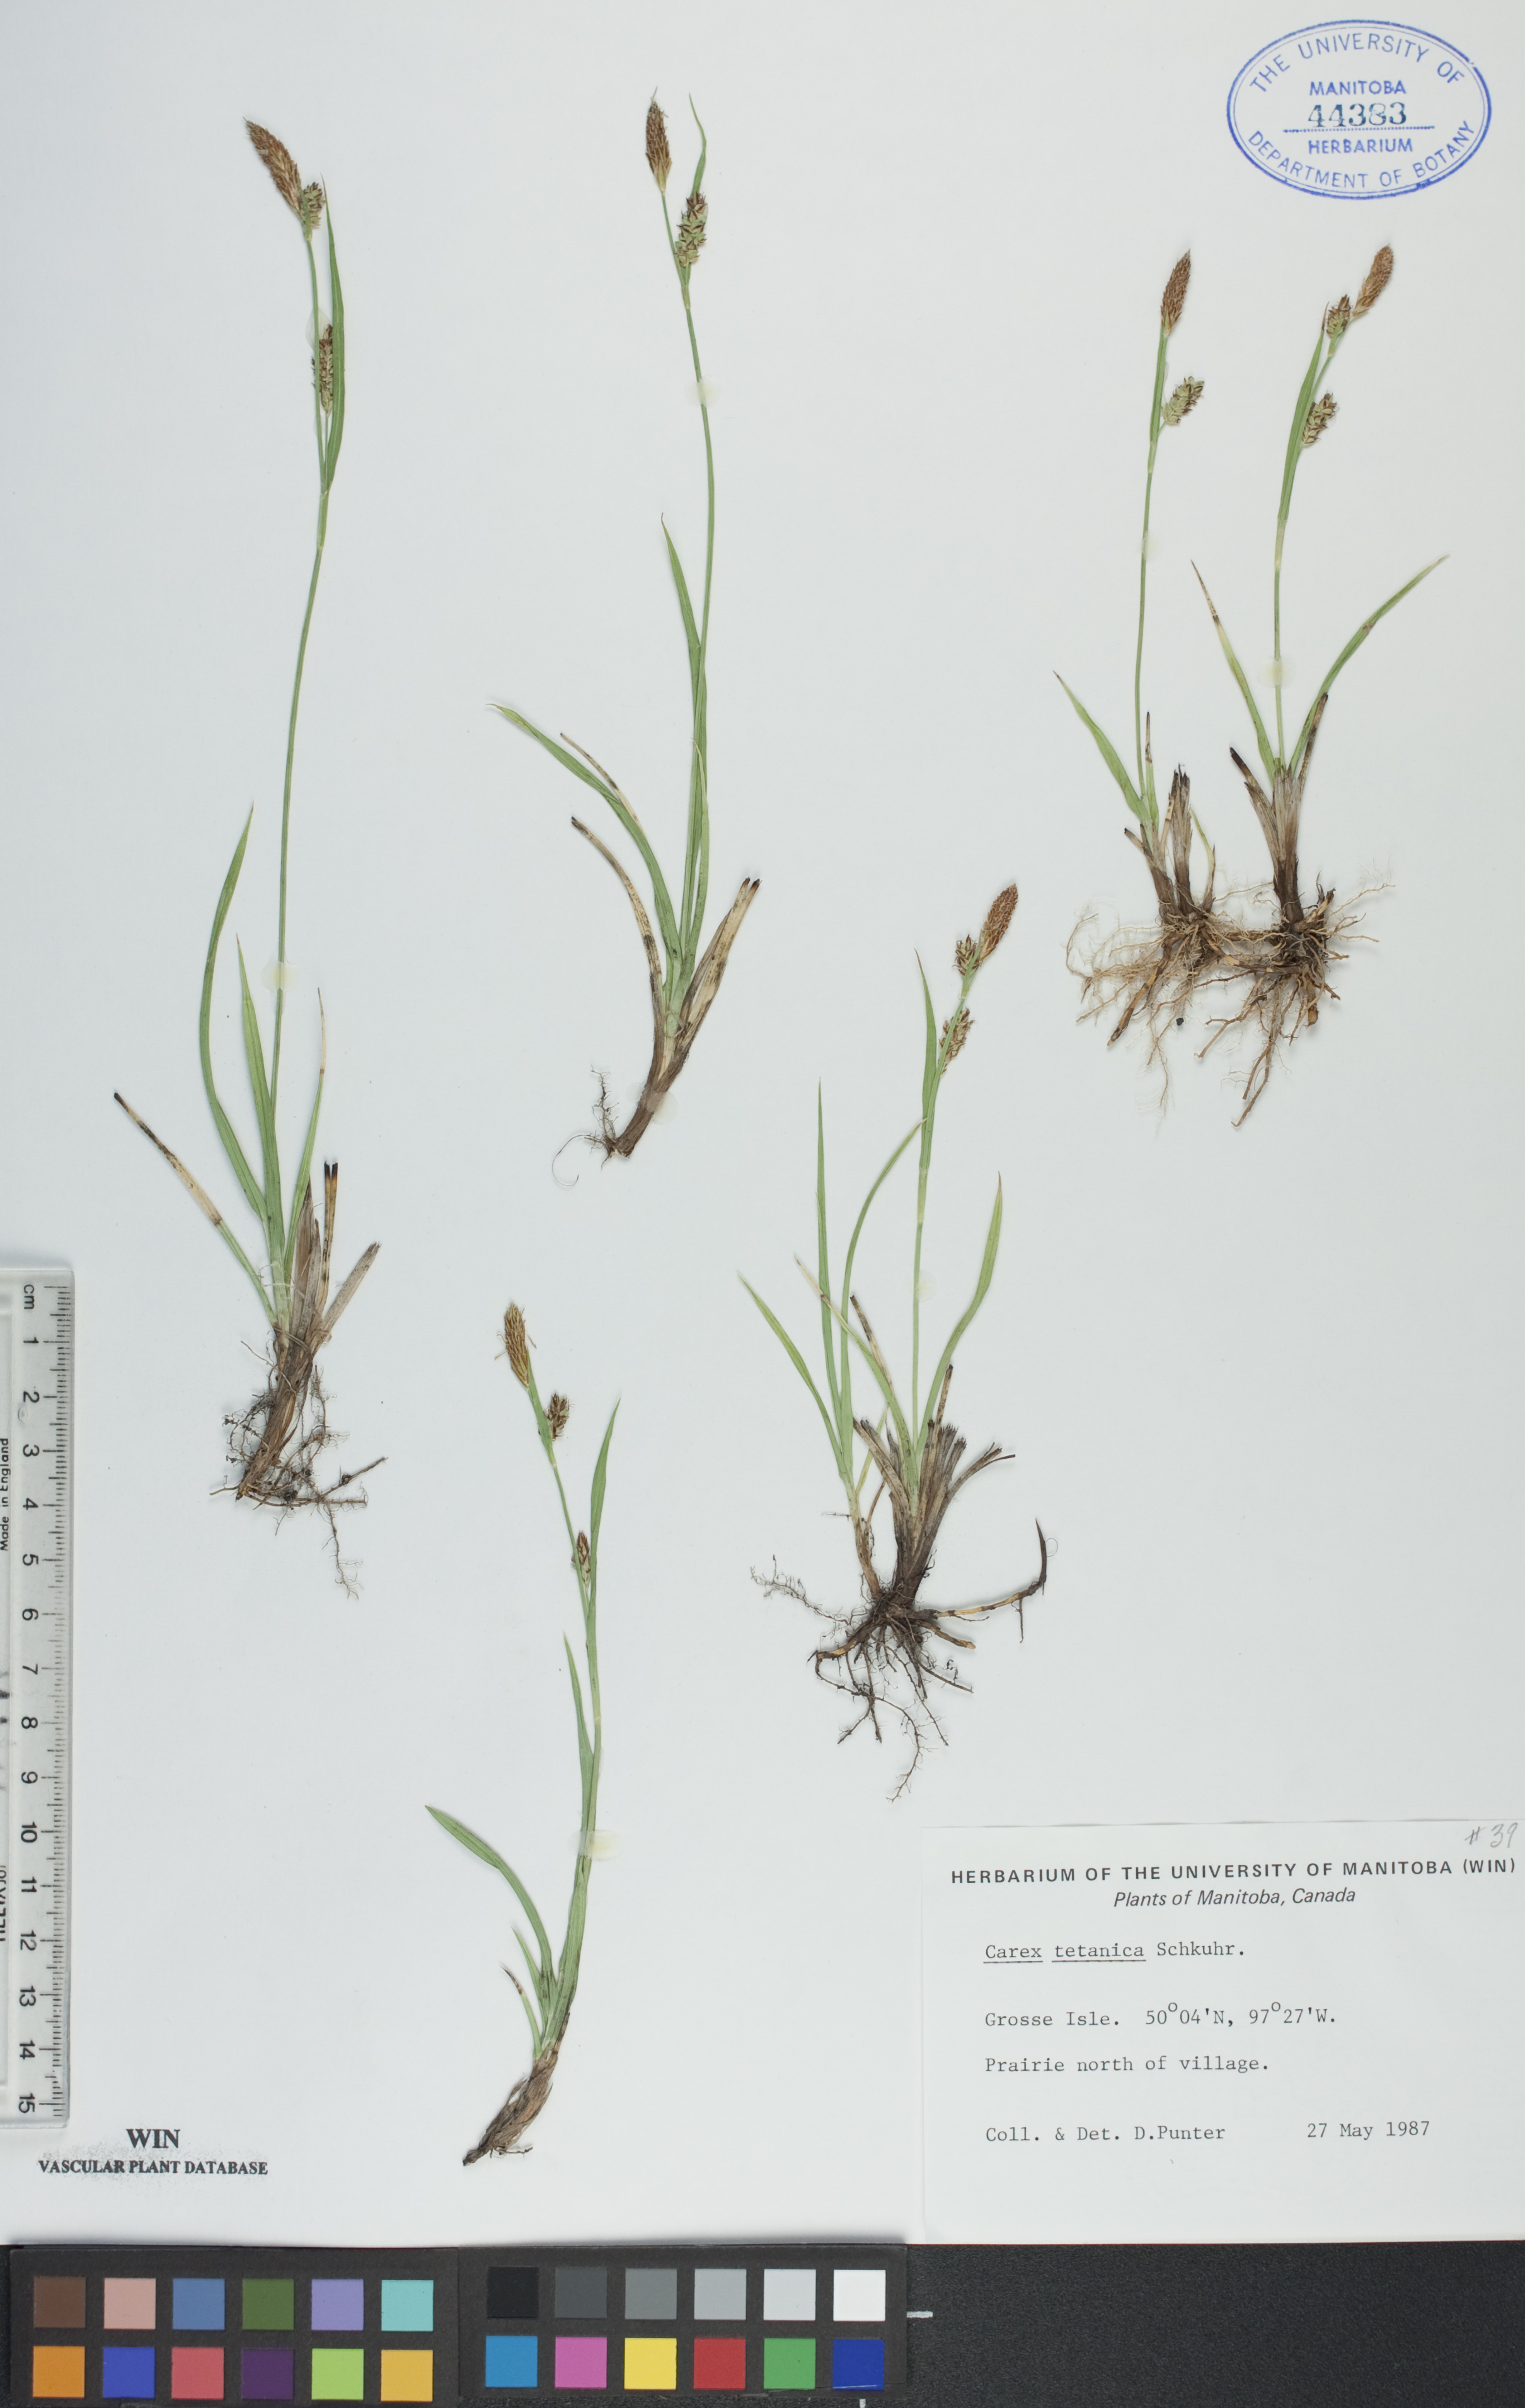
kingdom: Plantae
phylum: Tracheophyta
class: Liliopsida
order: Poales
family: Cyperaceae
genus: Carex
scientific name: Carex tetanica
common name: Rigid sedge
